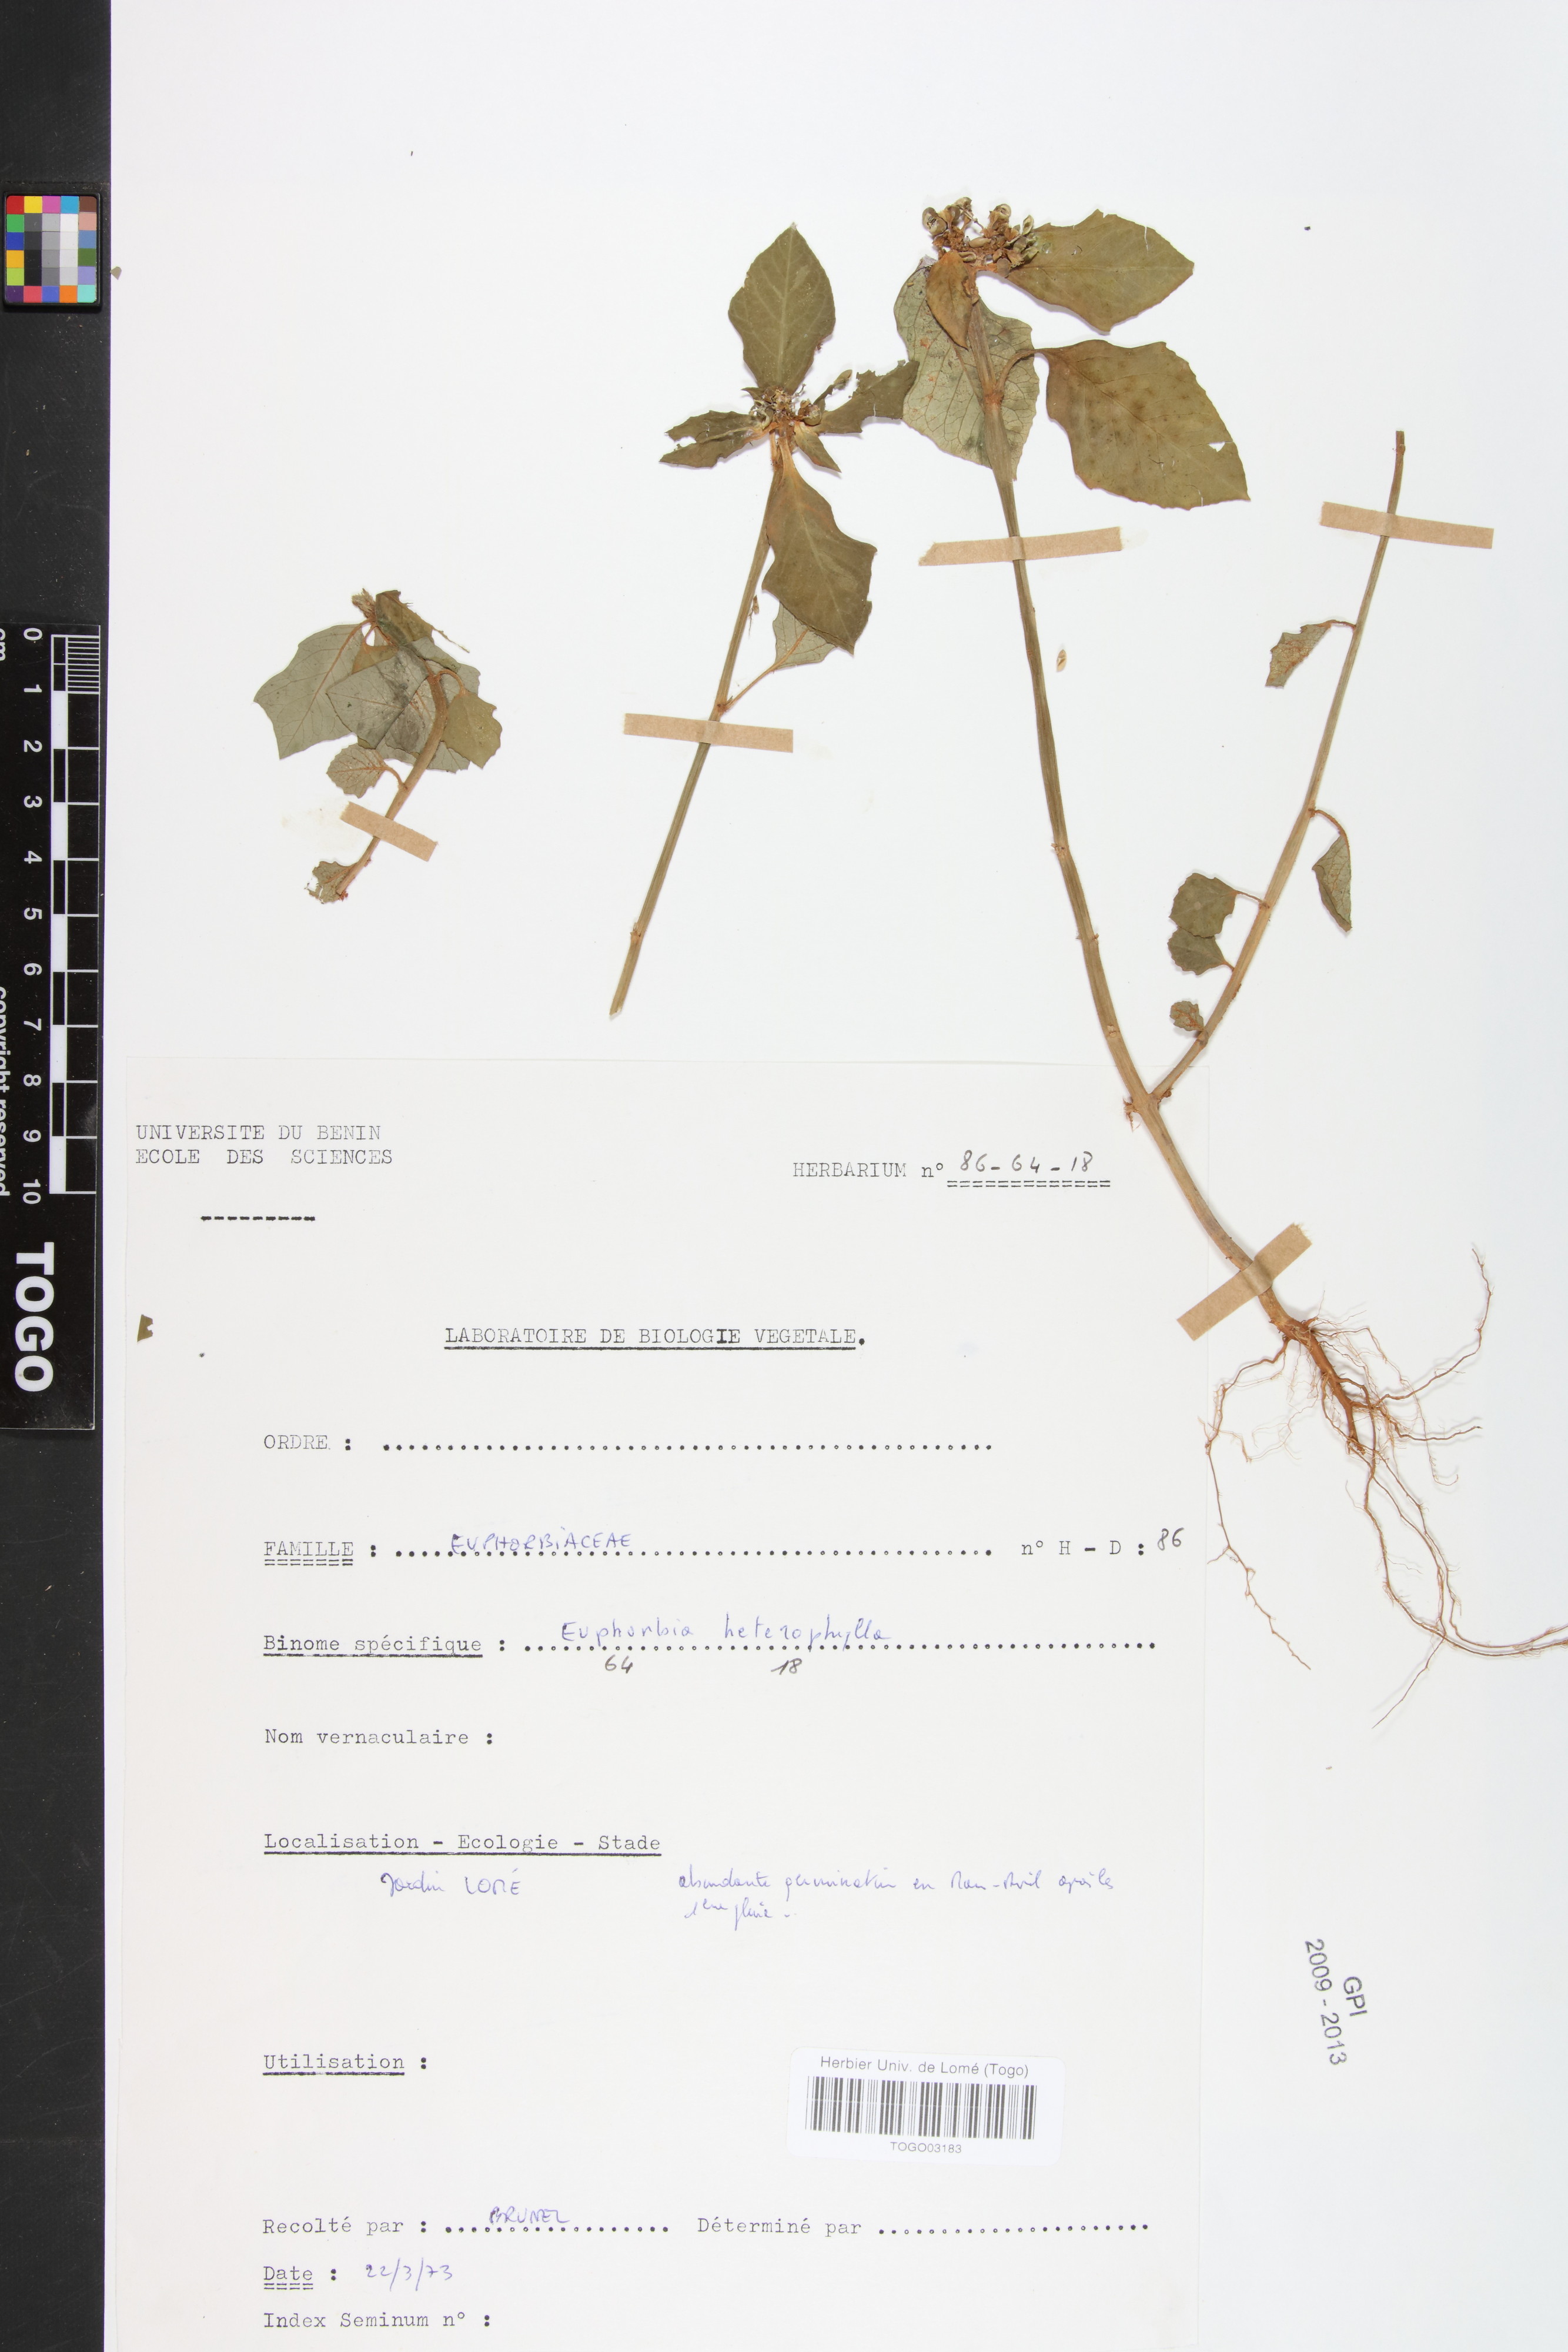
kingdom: Plantae
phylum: Tracheophyta
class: Magnoliopsida
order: Malpighiales
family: Euphorbiaceae
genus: Euphorbia
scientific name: Euphorbia heterophylla
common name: Mexican fireplant
